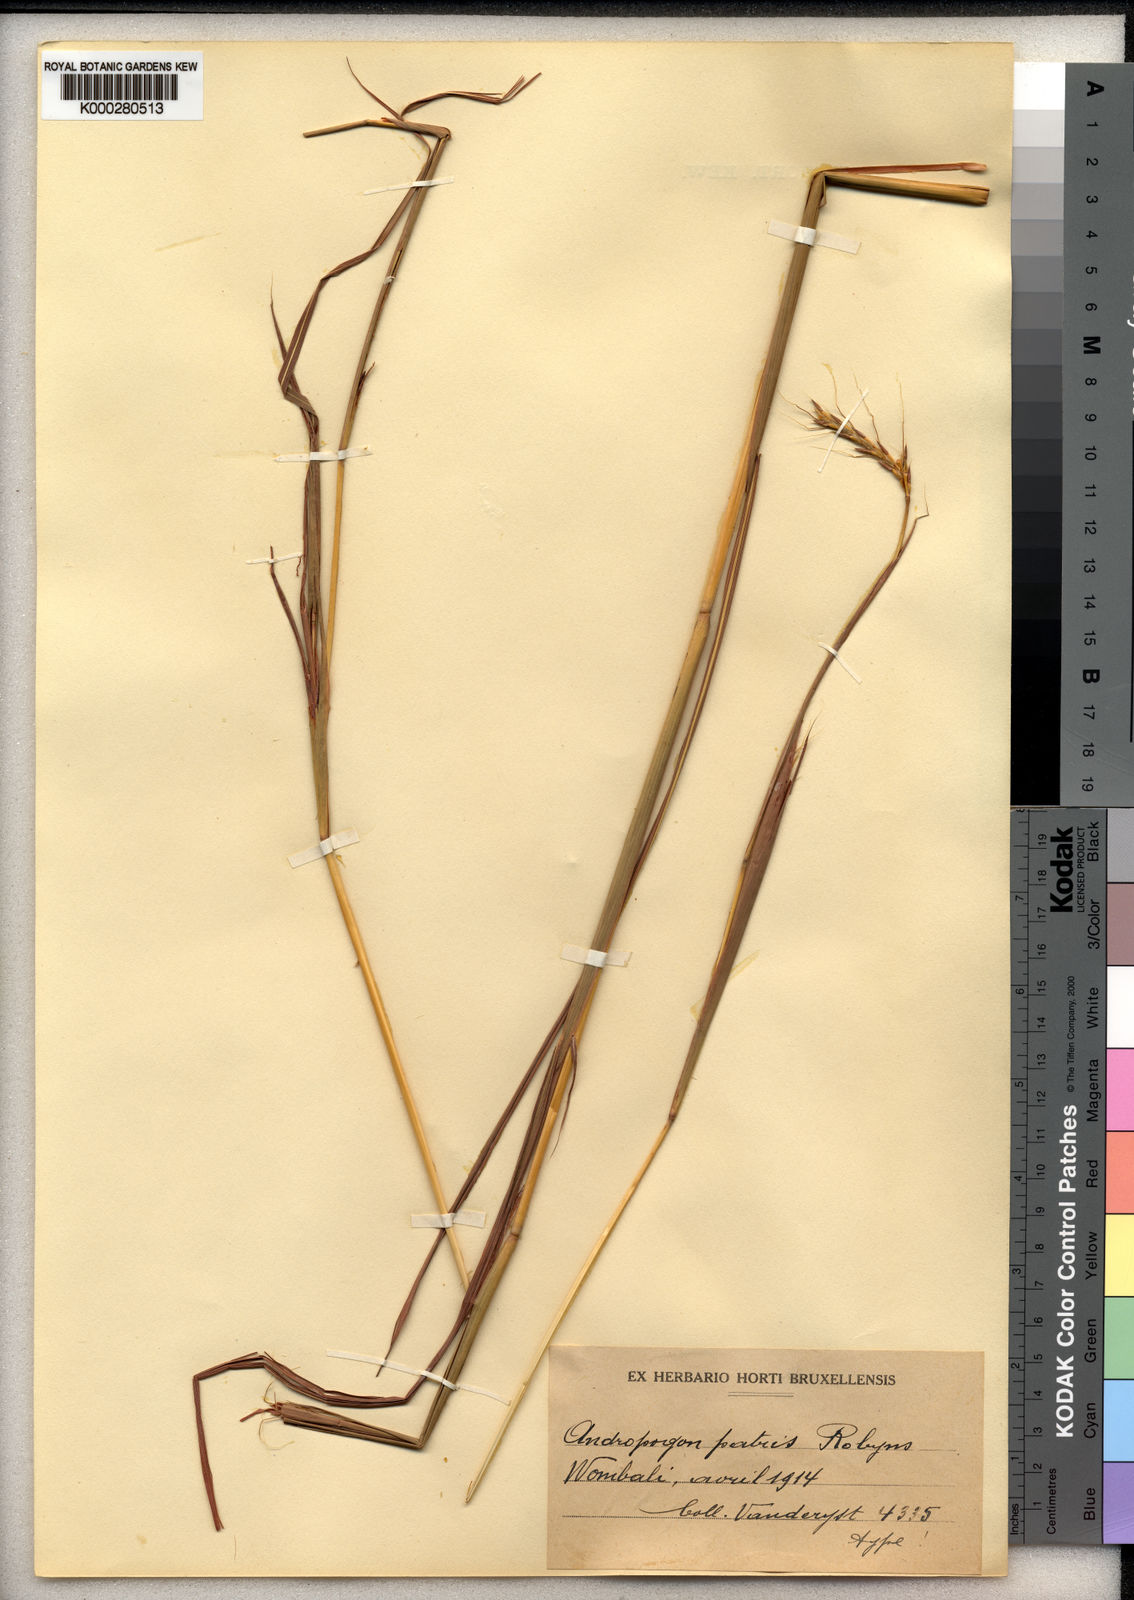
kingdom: Plantae
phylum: Tracheophyta
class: Liliopsida
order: Poales
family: Poaceae
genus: Andropogon
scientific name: Andropogon chinensis
